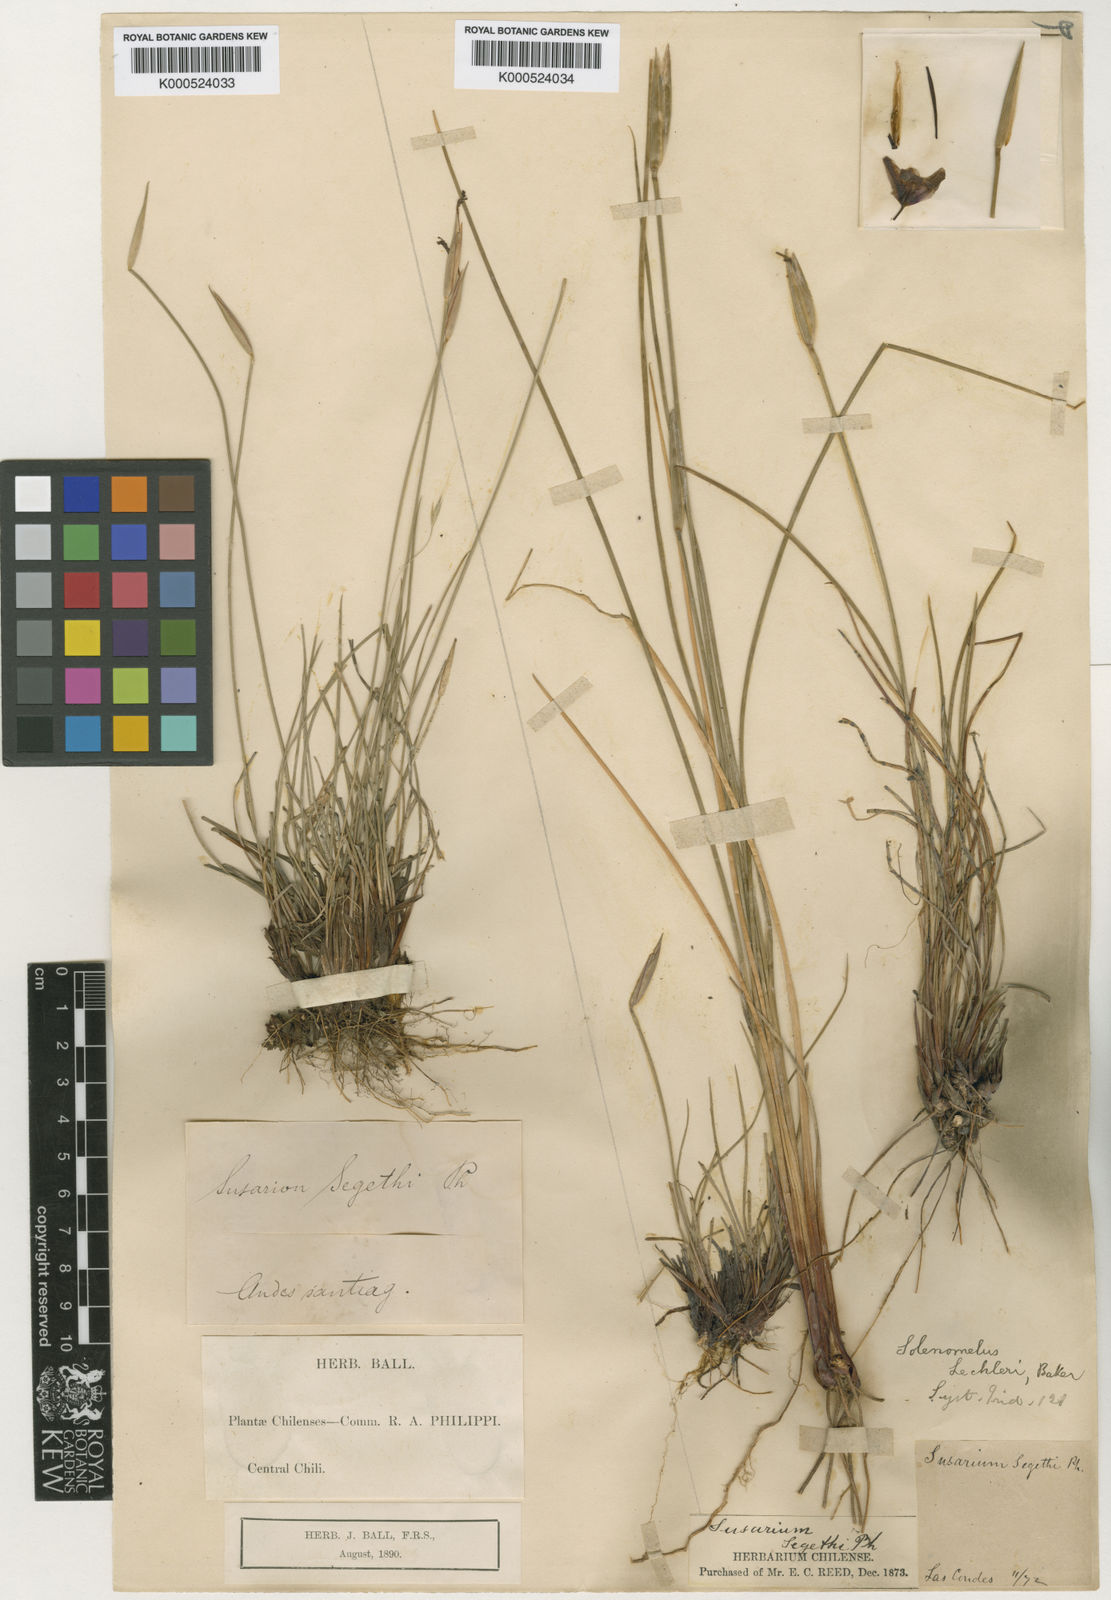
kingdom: Plantae
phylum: Tracheophyta
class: Liliopsida
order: Asparagales
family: Iridaceae
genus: Solenomelus
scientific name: Solenomelus segethi
